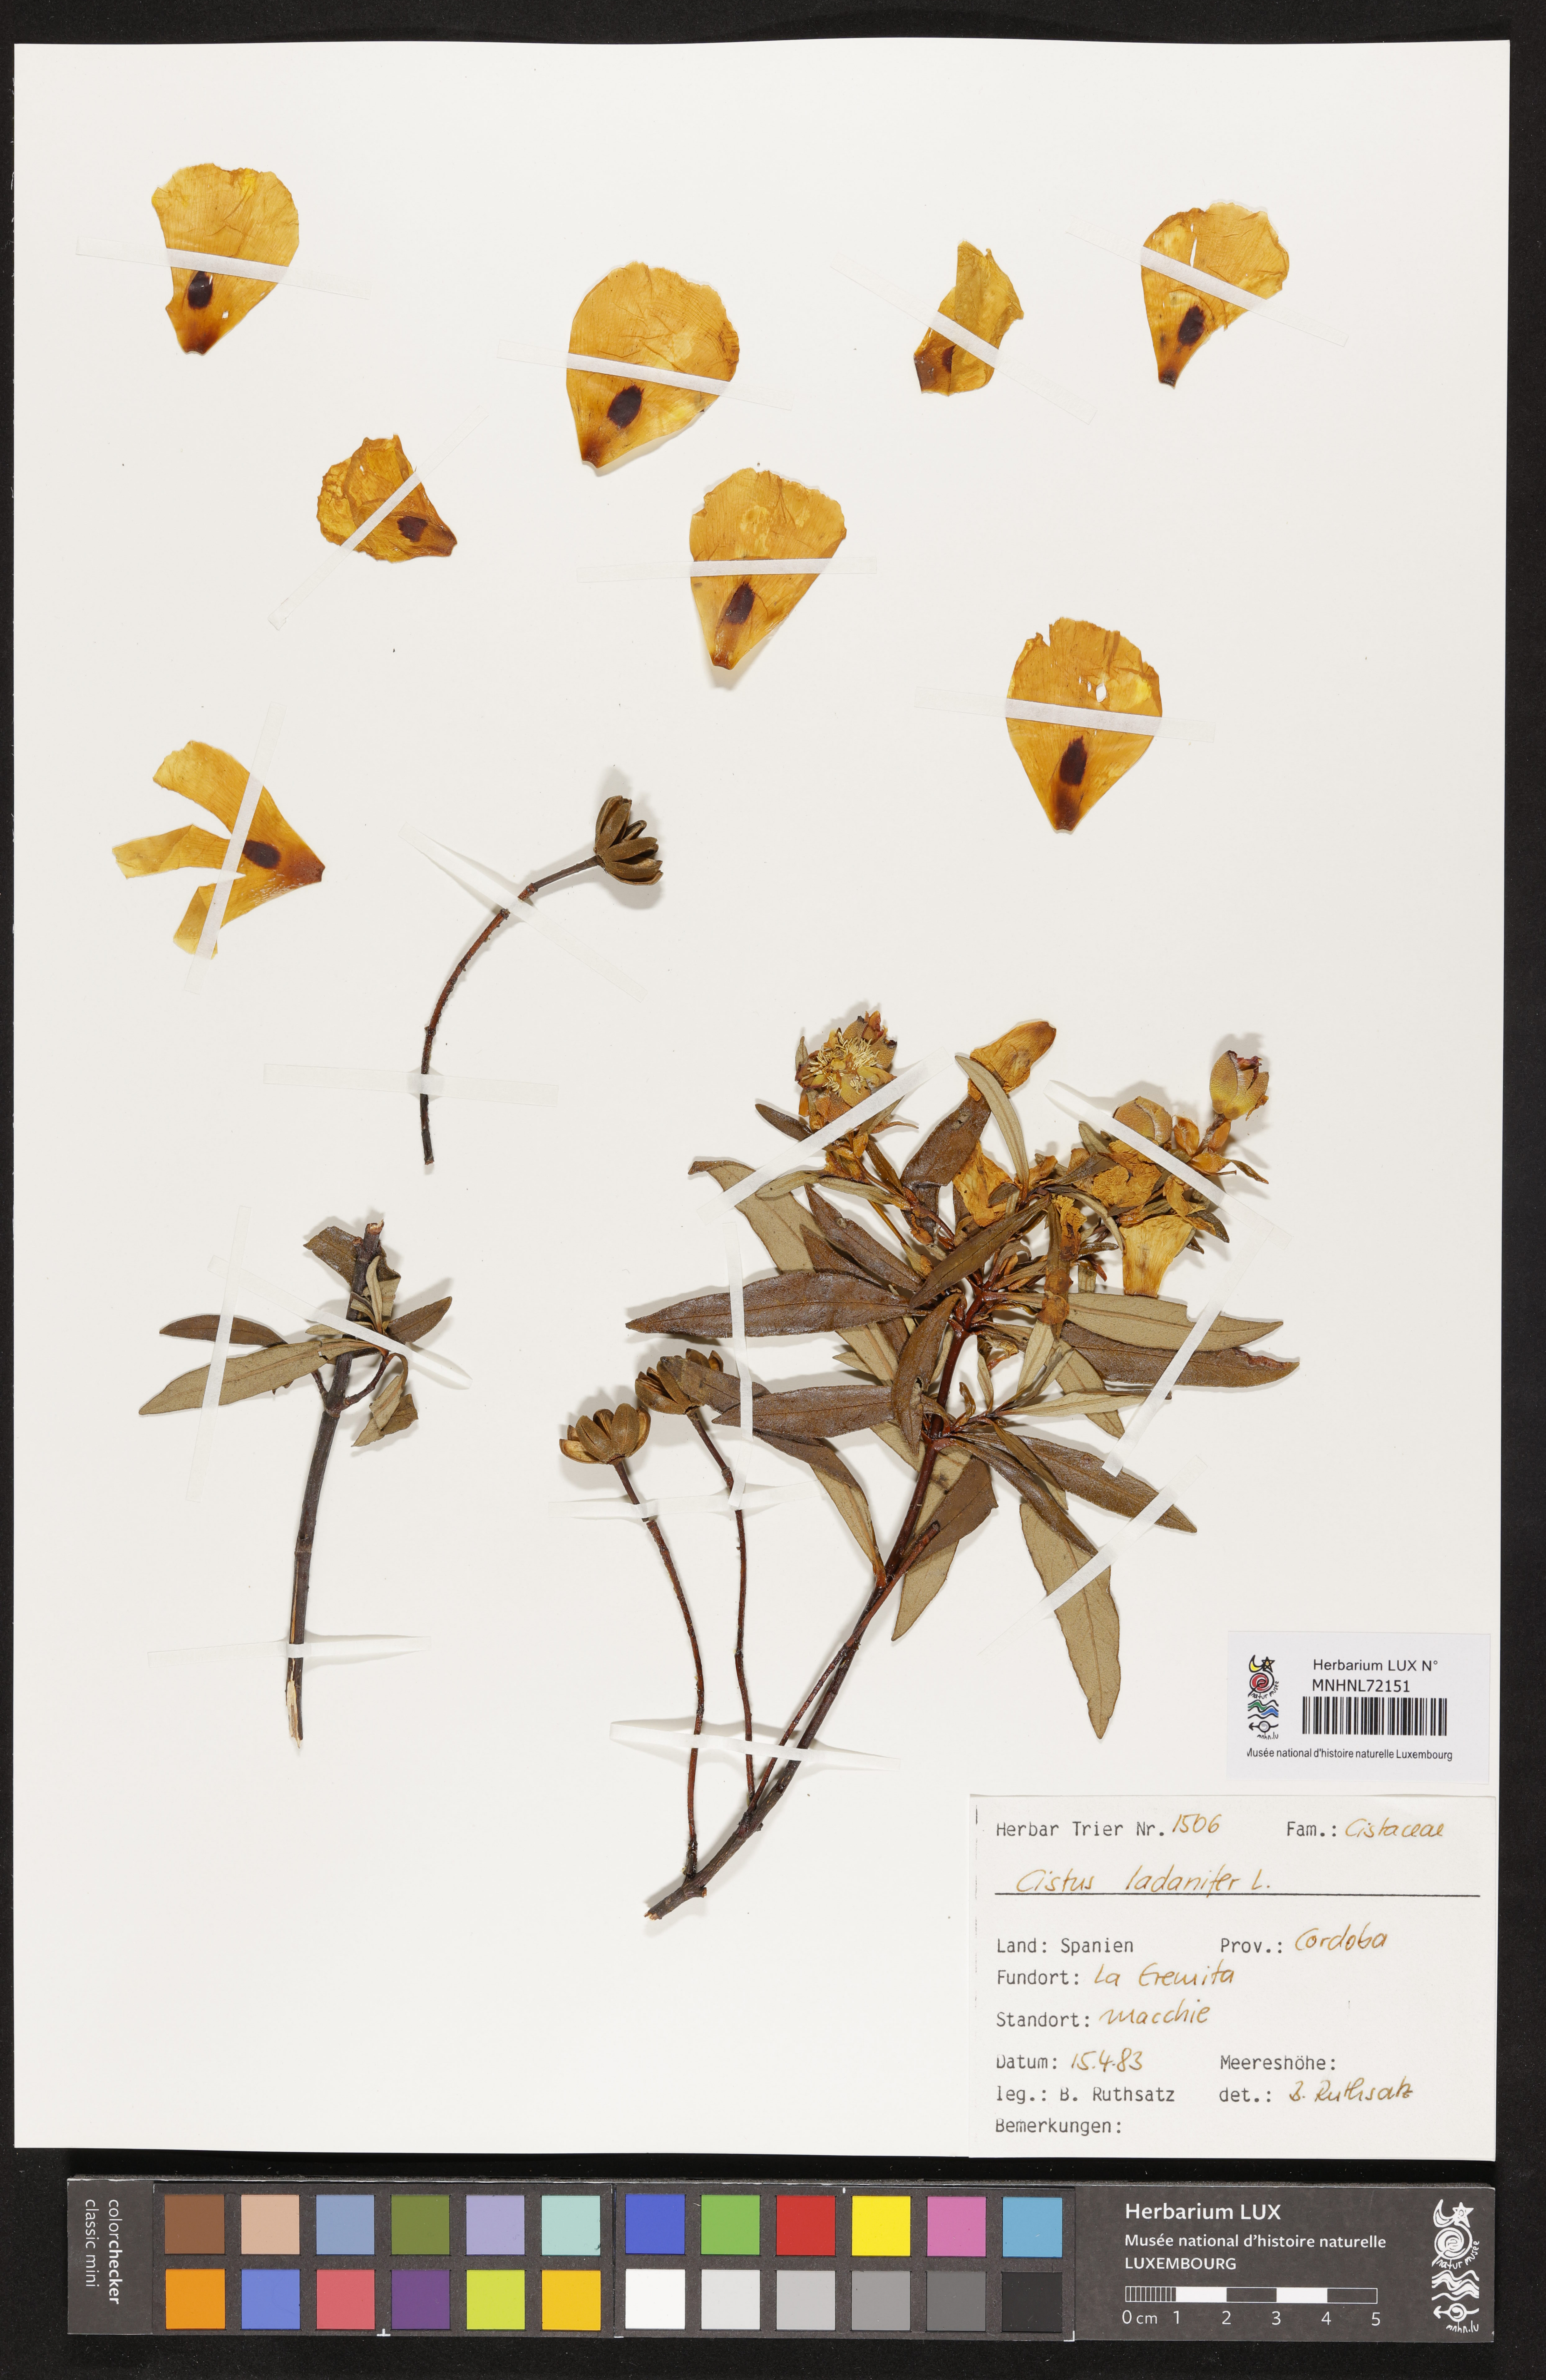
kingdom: Plantae
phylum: Tracheophyta
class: Magnoliopsida
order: Malvales
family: Cistaceae
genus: Cistus
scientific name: Cistus ladanifer
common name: Common gum cistus
